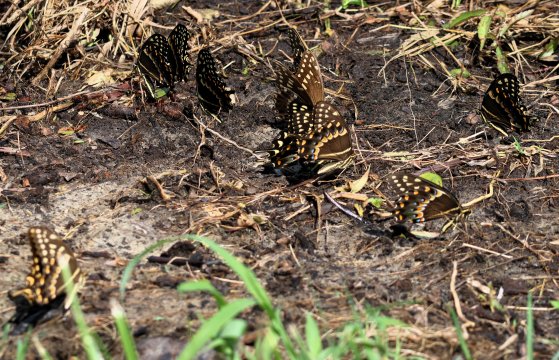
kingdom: Animalia
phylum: Arthropoda
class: Insecta
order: Lepidoptera
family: Papilionidae
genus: Pterourus
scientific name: Pterourus palamedes
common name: Palamedes Swallowtail
